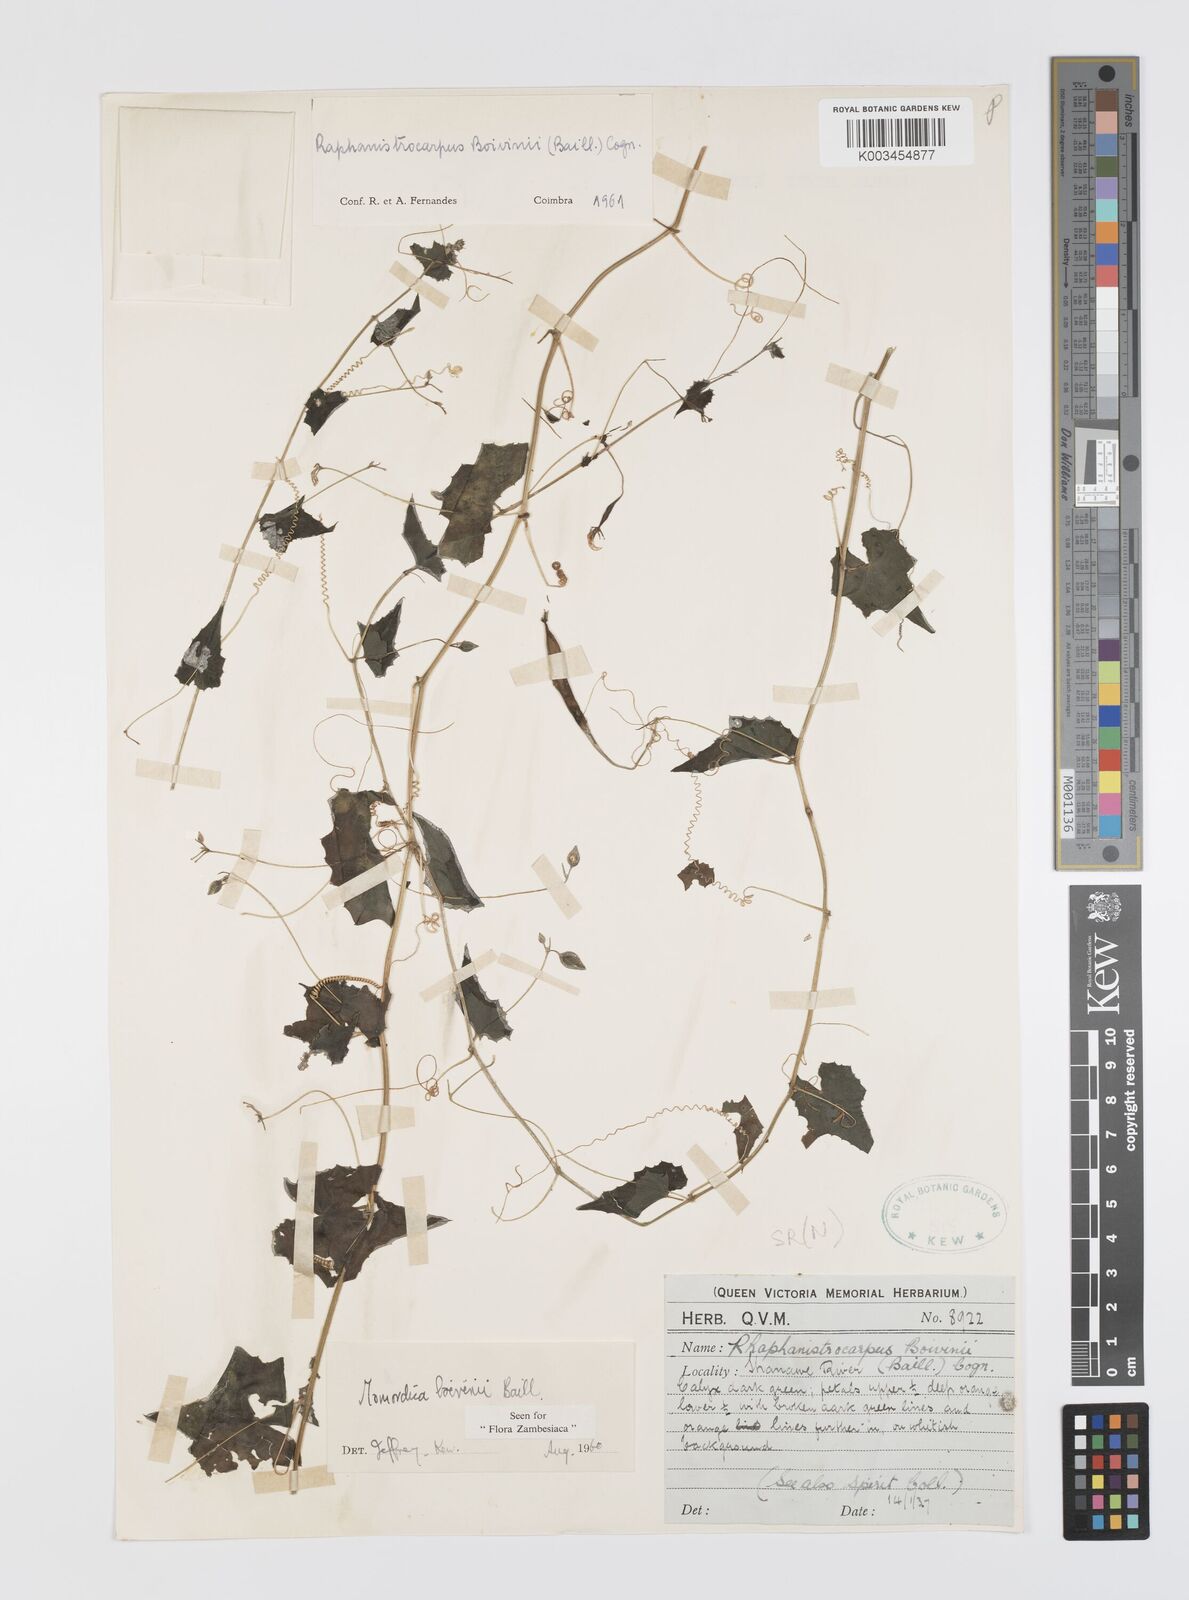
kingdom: Plantae
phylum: Tracheophyta
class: Magnoliopsida
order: Cucurbitales
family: Cucurbitaceae
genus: Momordica
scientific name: Momordica boivinii
